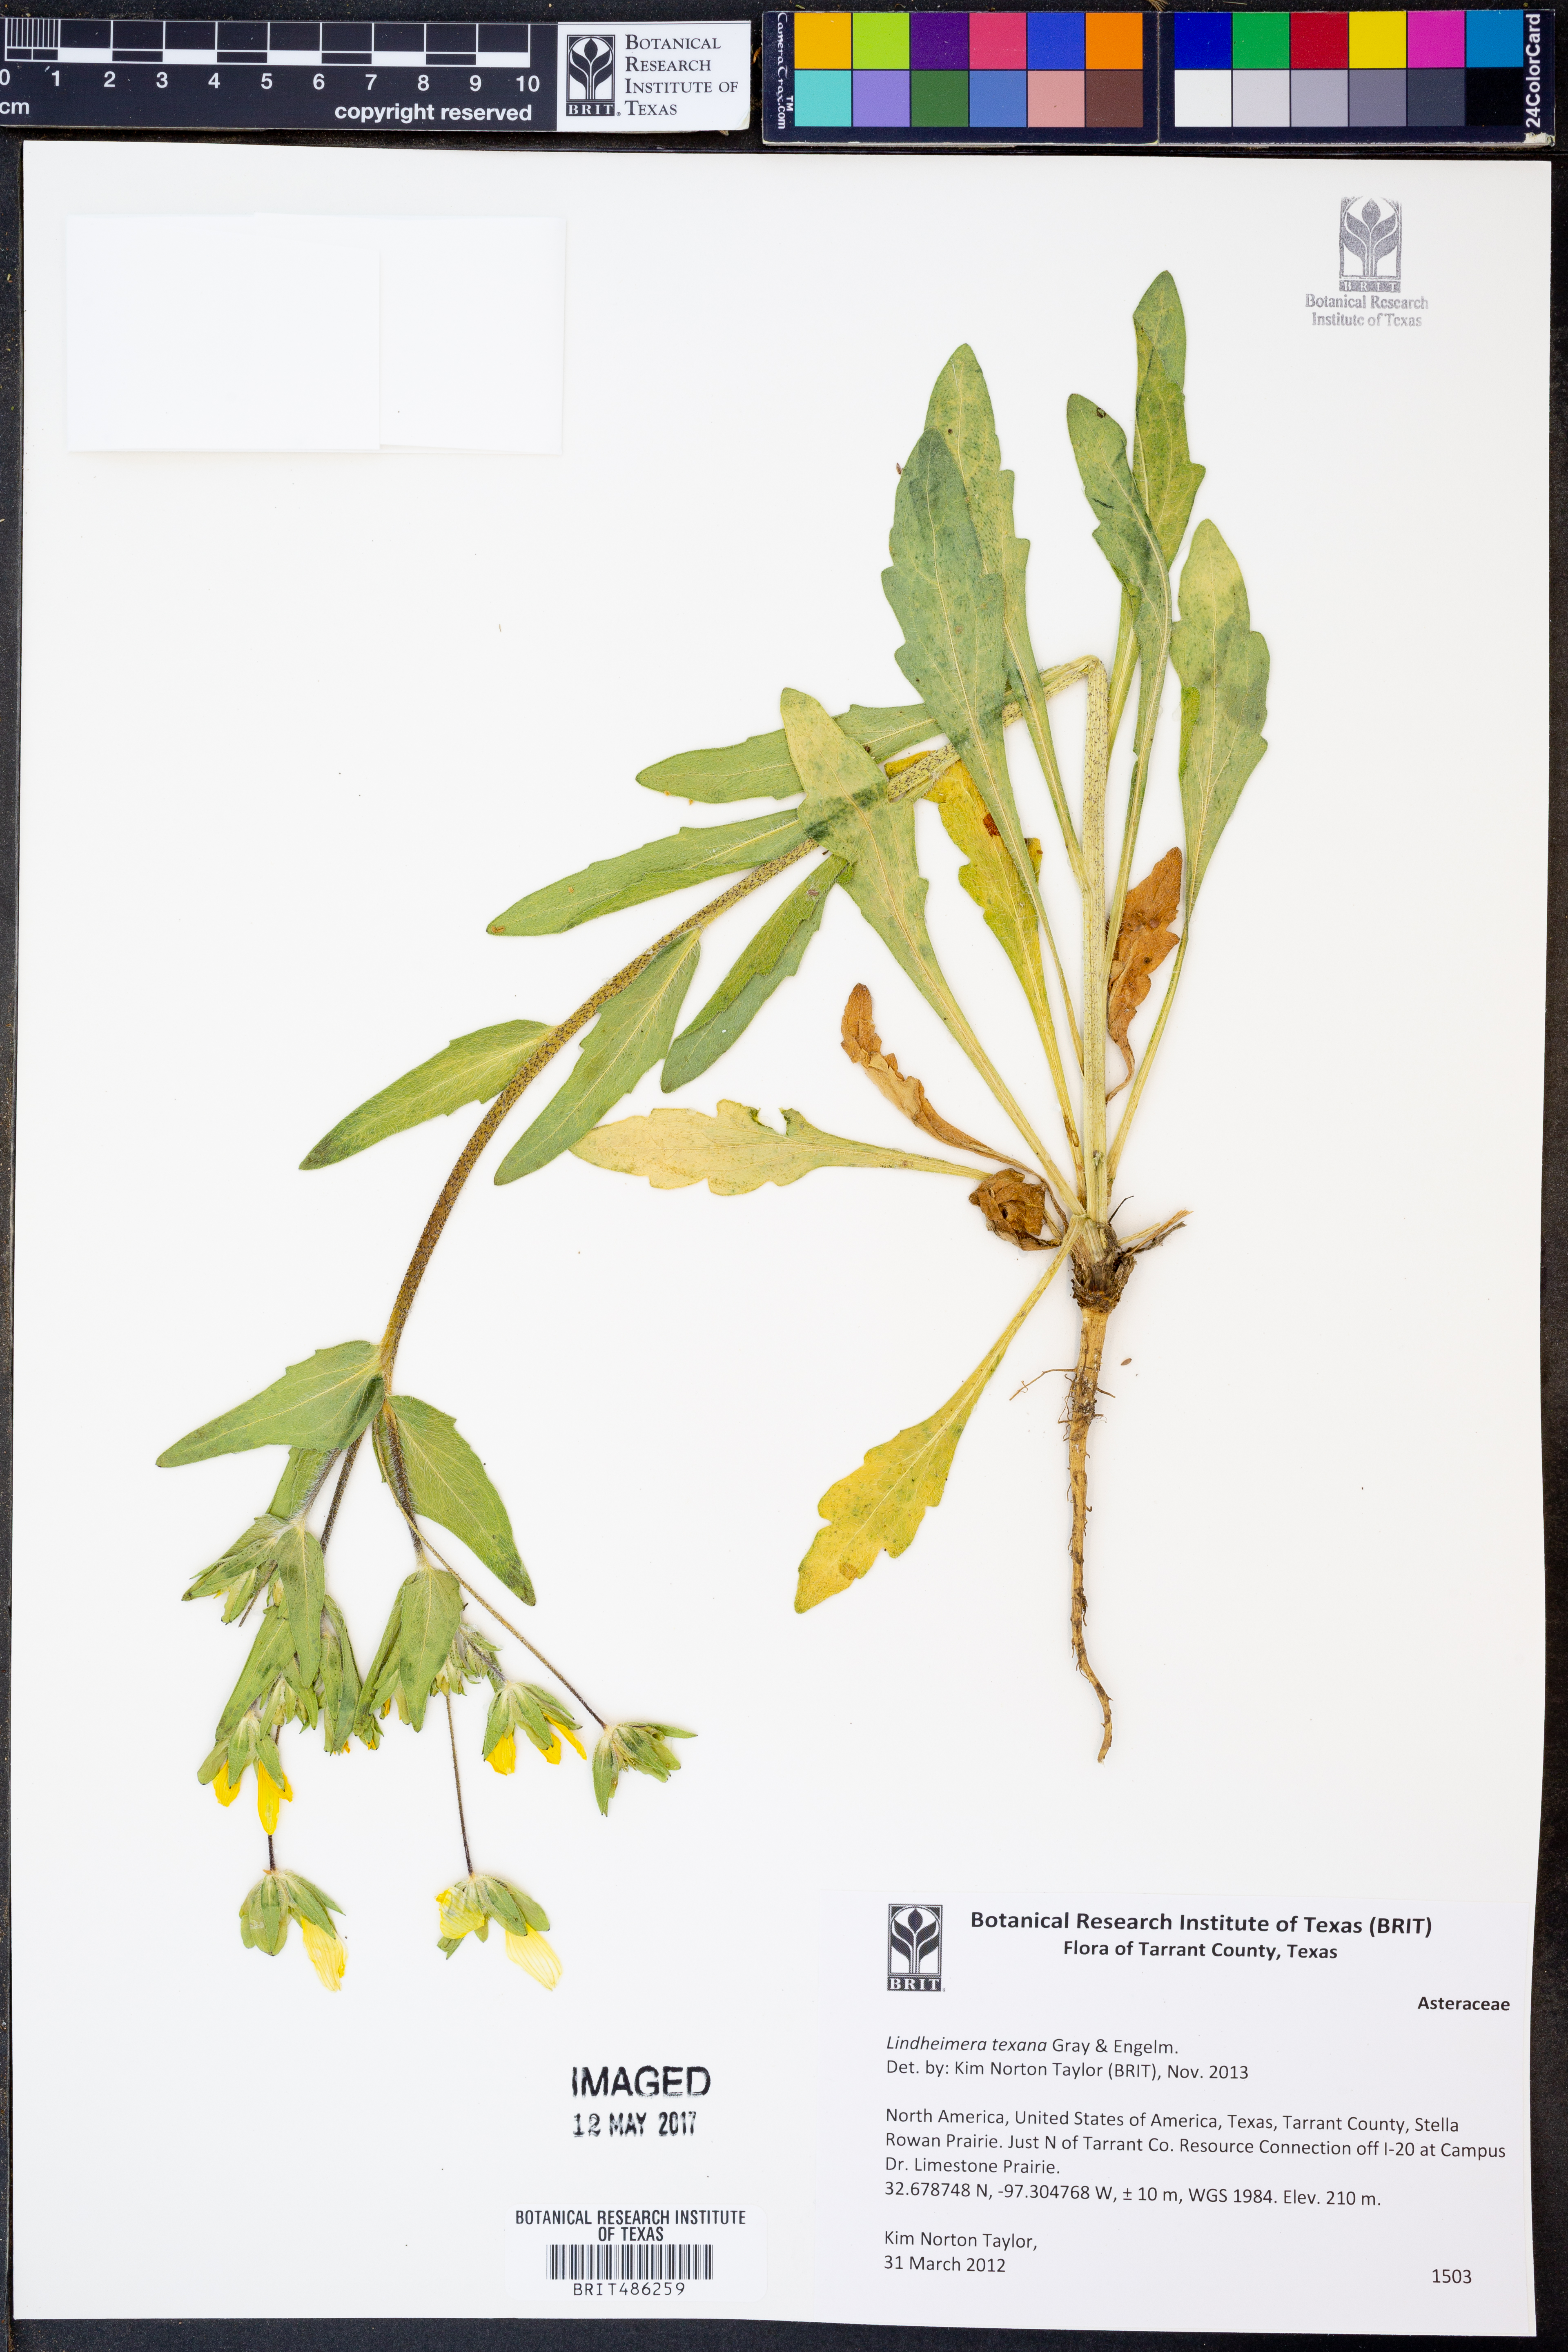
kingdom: Plantae
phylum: Tracheophyta
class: Magnoliopsida
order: Asterales
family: Asteraceae
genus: Lindheimera
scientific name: Lindheimera texana
